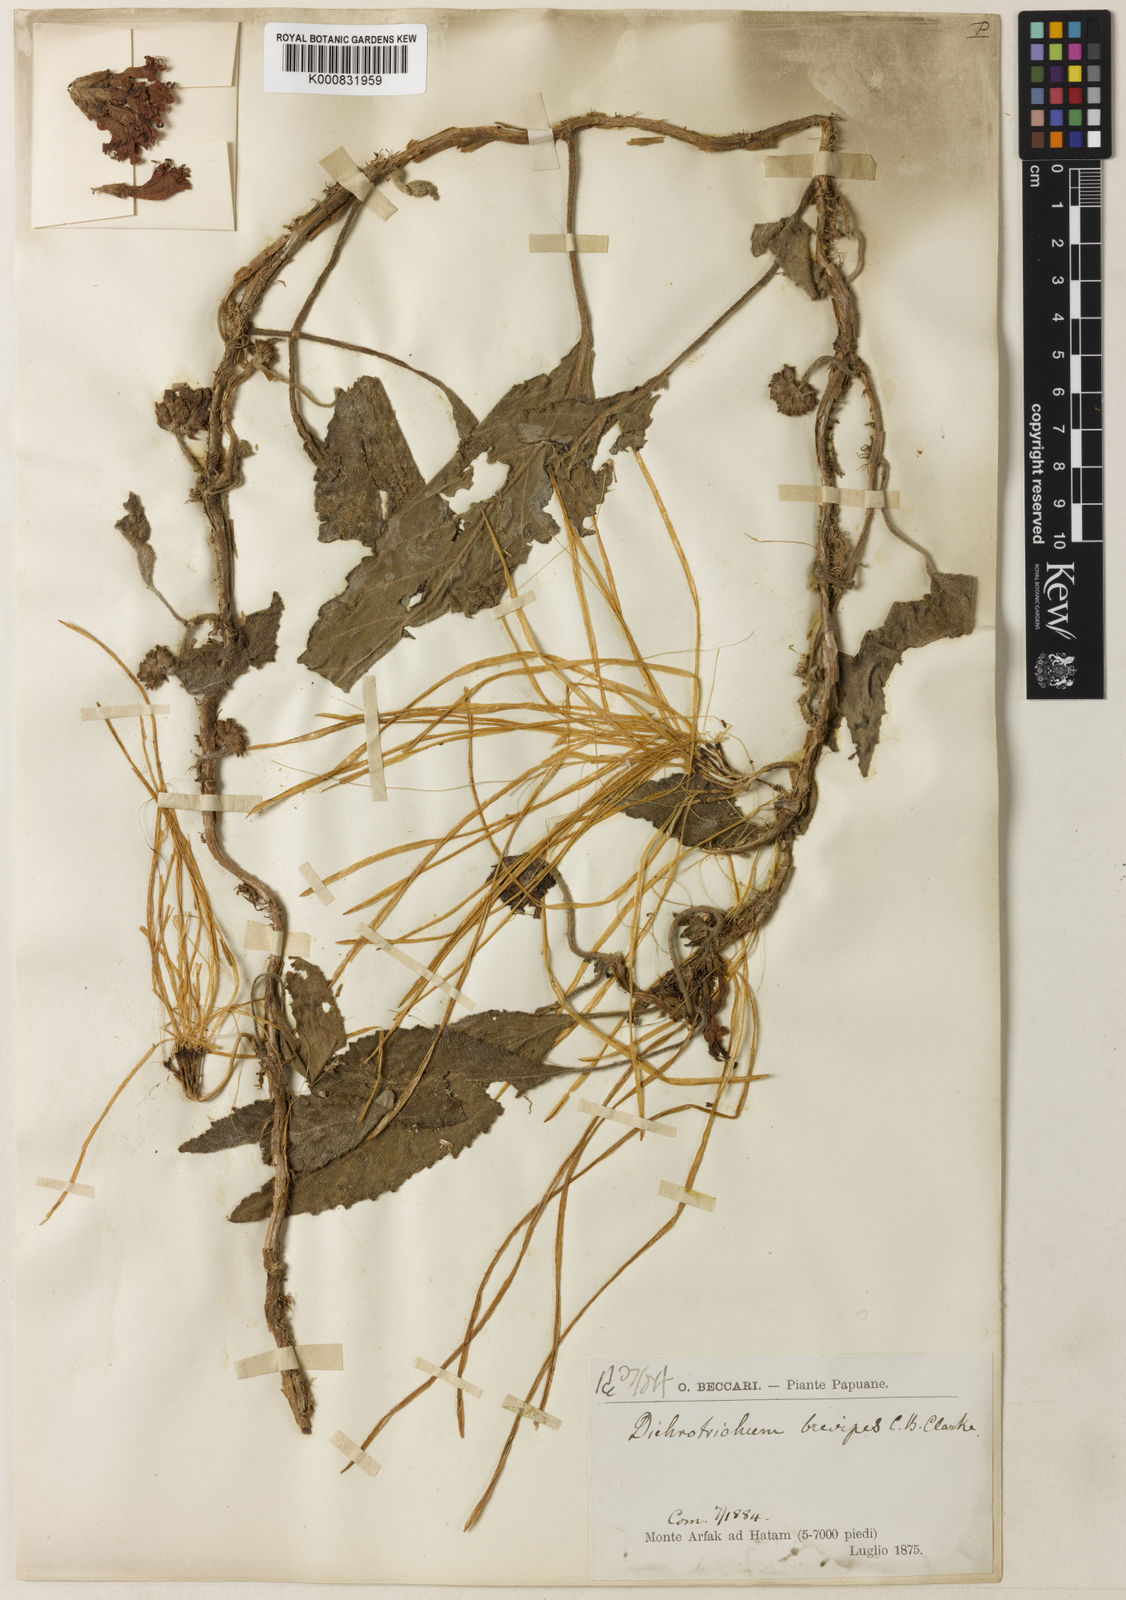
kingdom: Plantae
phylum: Tracheophyta
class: Magnoliopsida
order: Lamiales
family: Gesneriaceae
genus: Agalmyla
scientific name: Agalmyla brevipes
